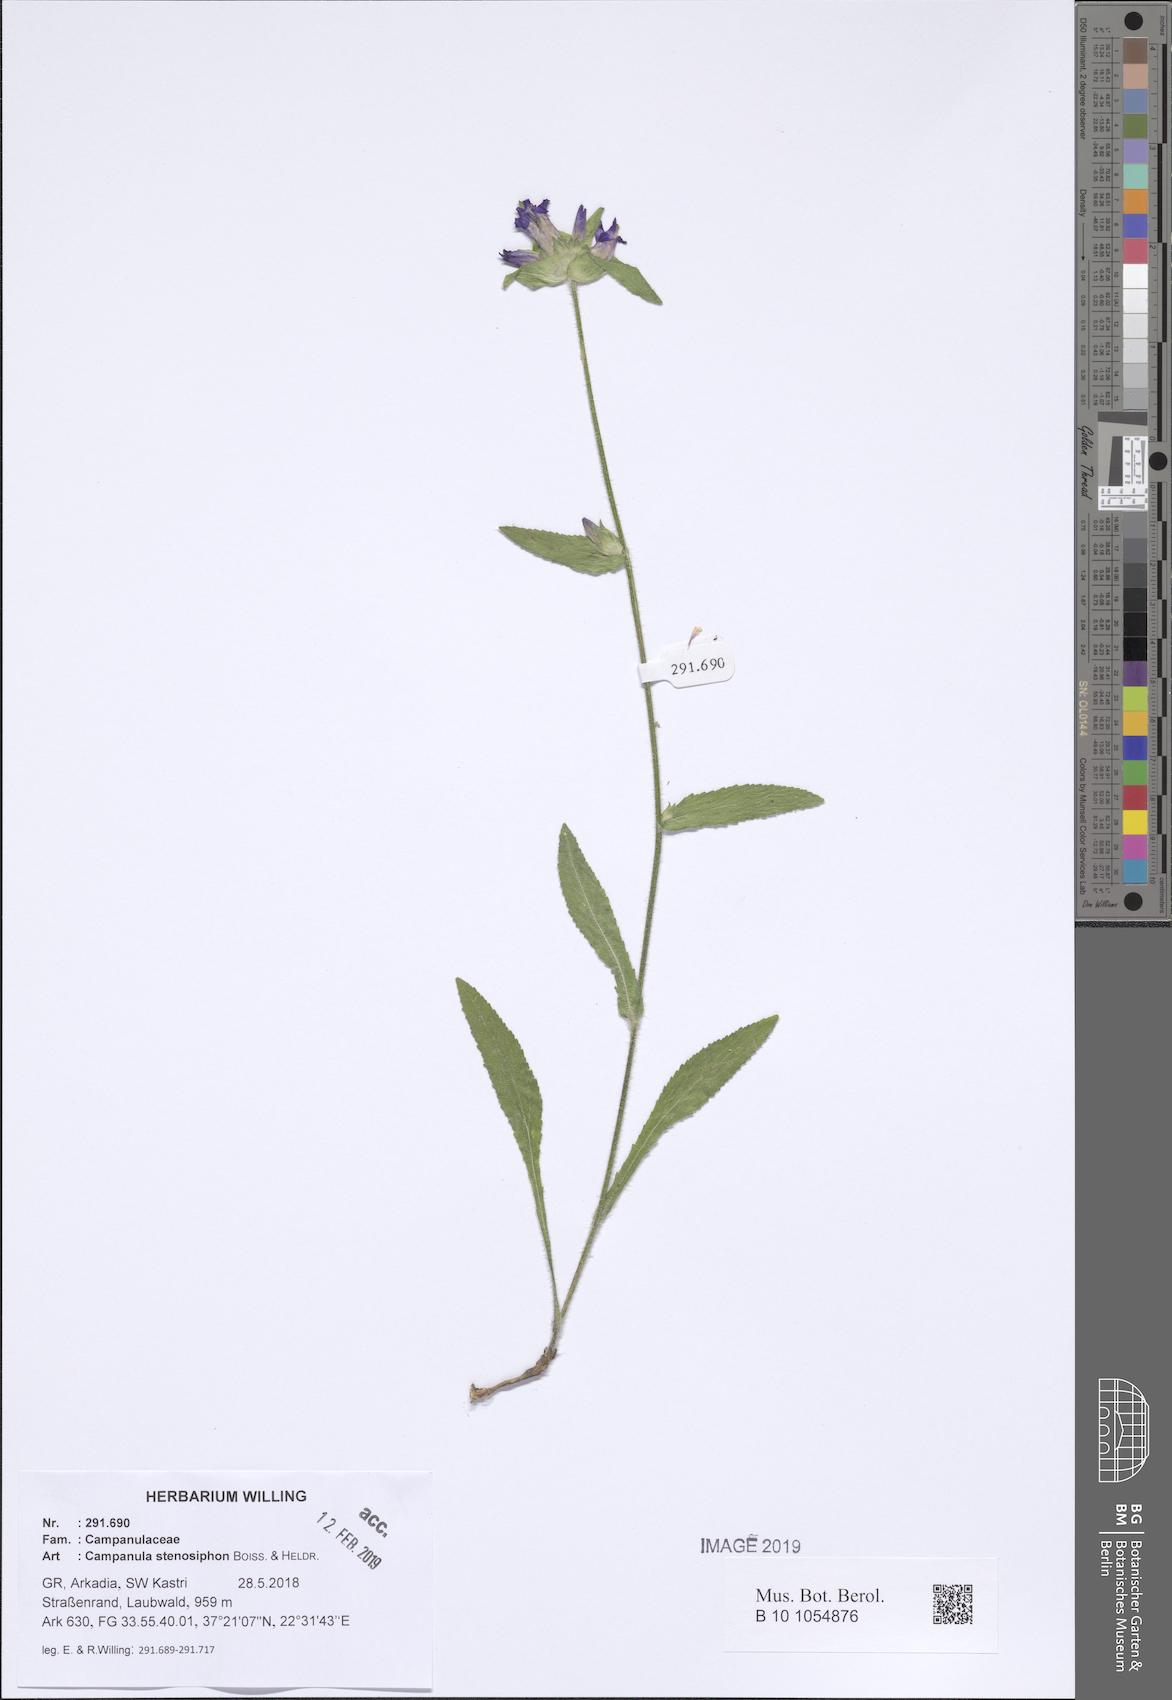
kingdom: Plantae
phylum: Tracheophyta
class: Magnoliopsida
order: Asterales
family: Campanulaceae
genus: Campanula
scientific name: Campanula stenosiphon
